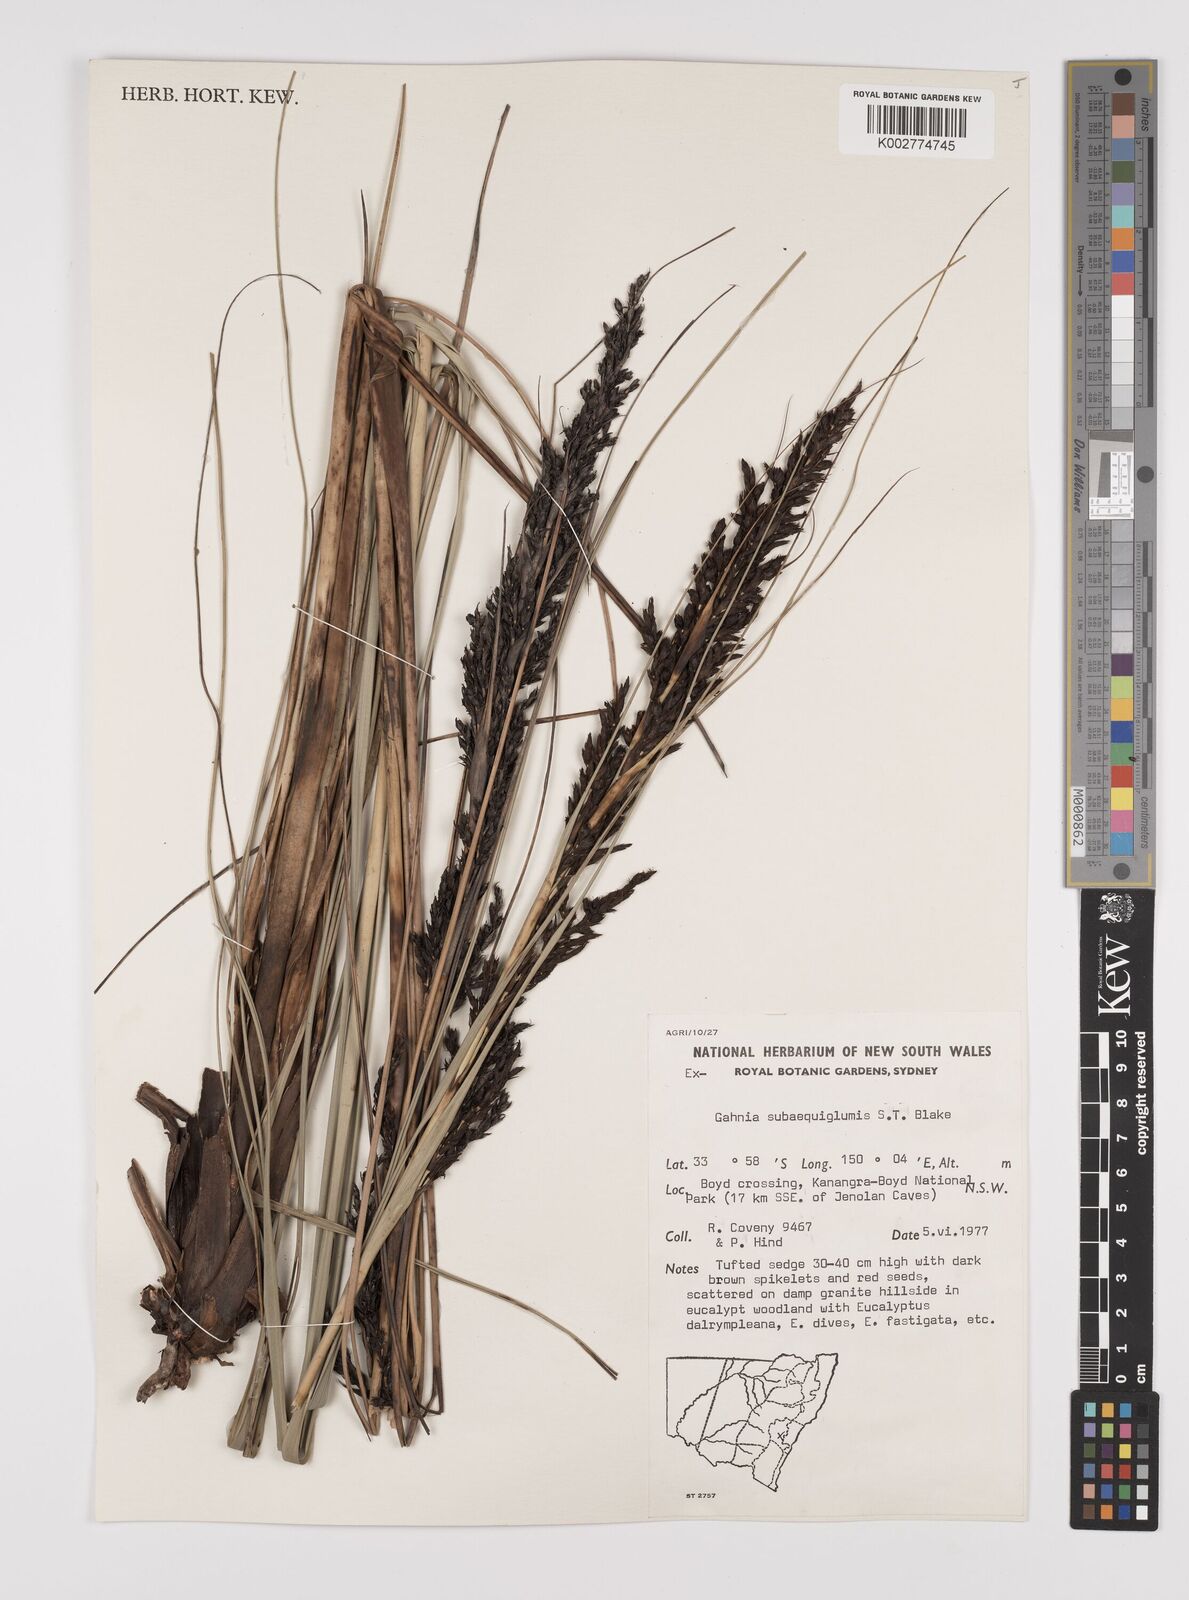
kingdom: Plantae
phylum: Tracheophyta
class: Liliopsida
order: Poales
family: Cyperaceae
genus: Gahnia
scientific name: Gahnia subaequiglumis
